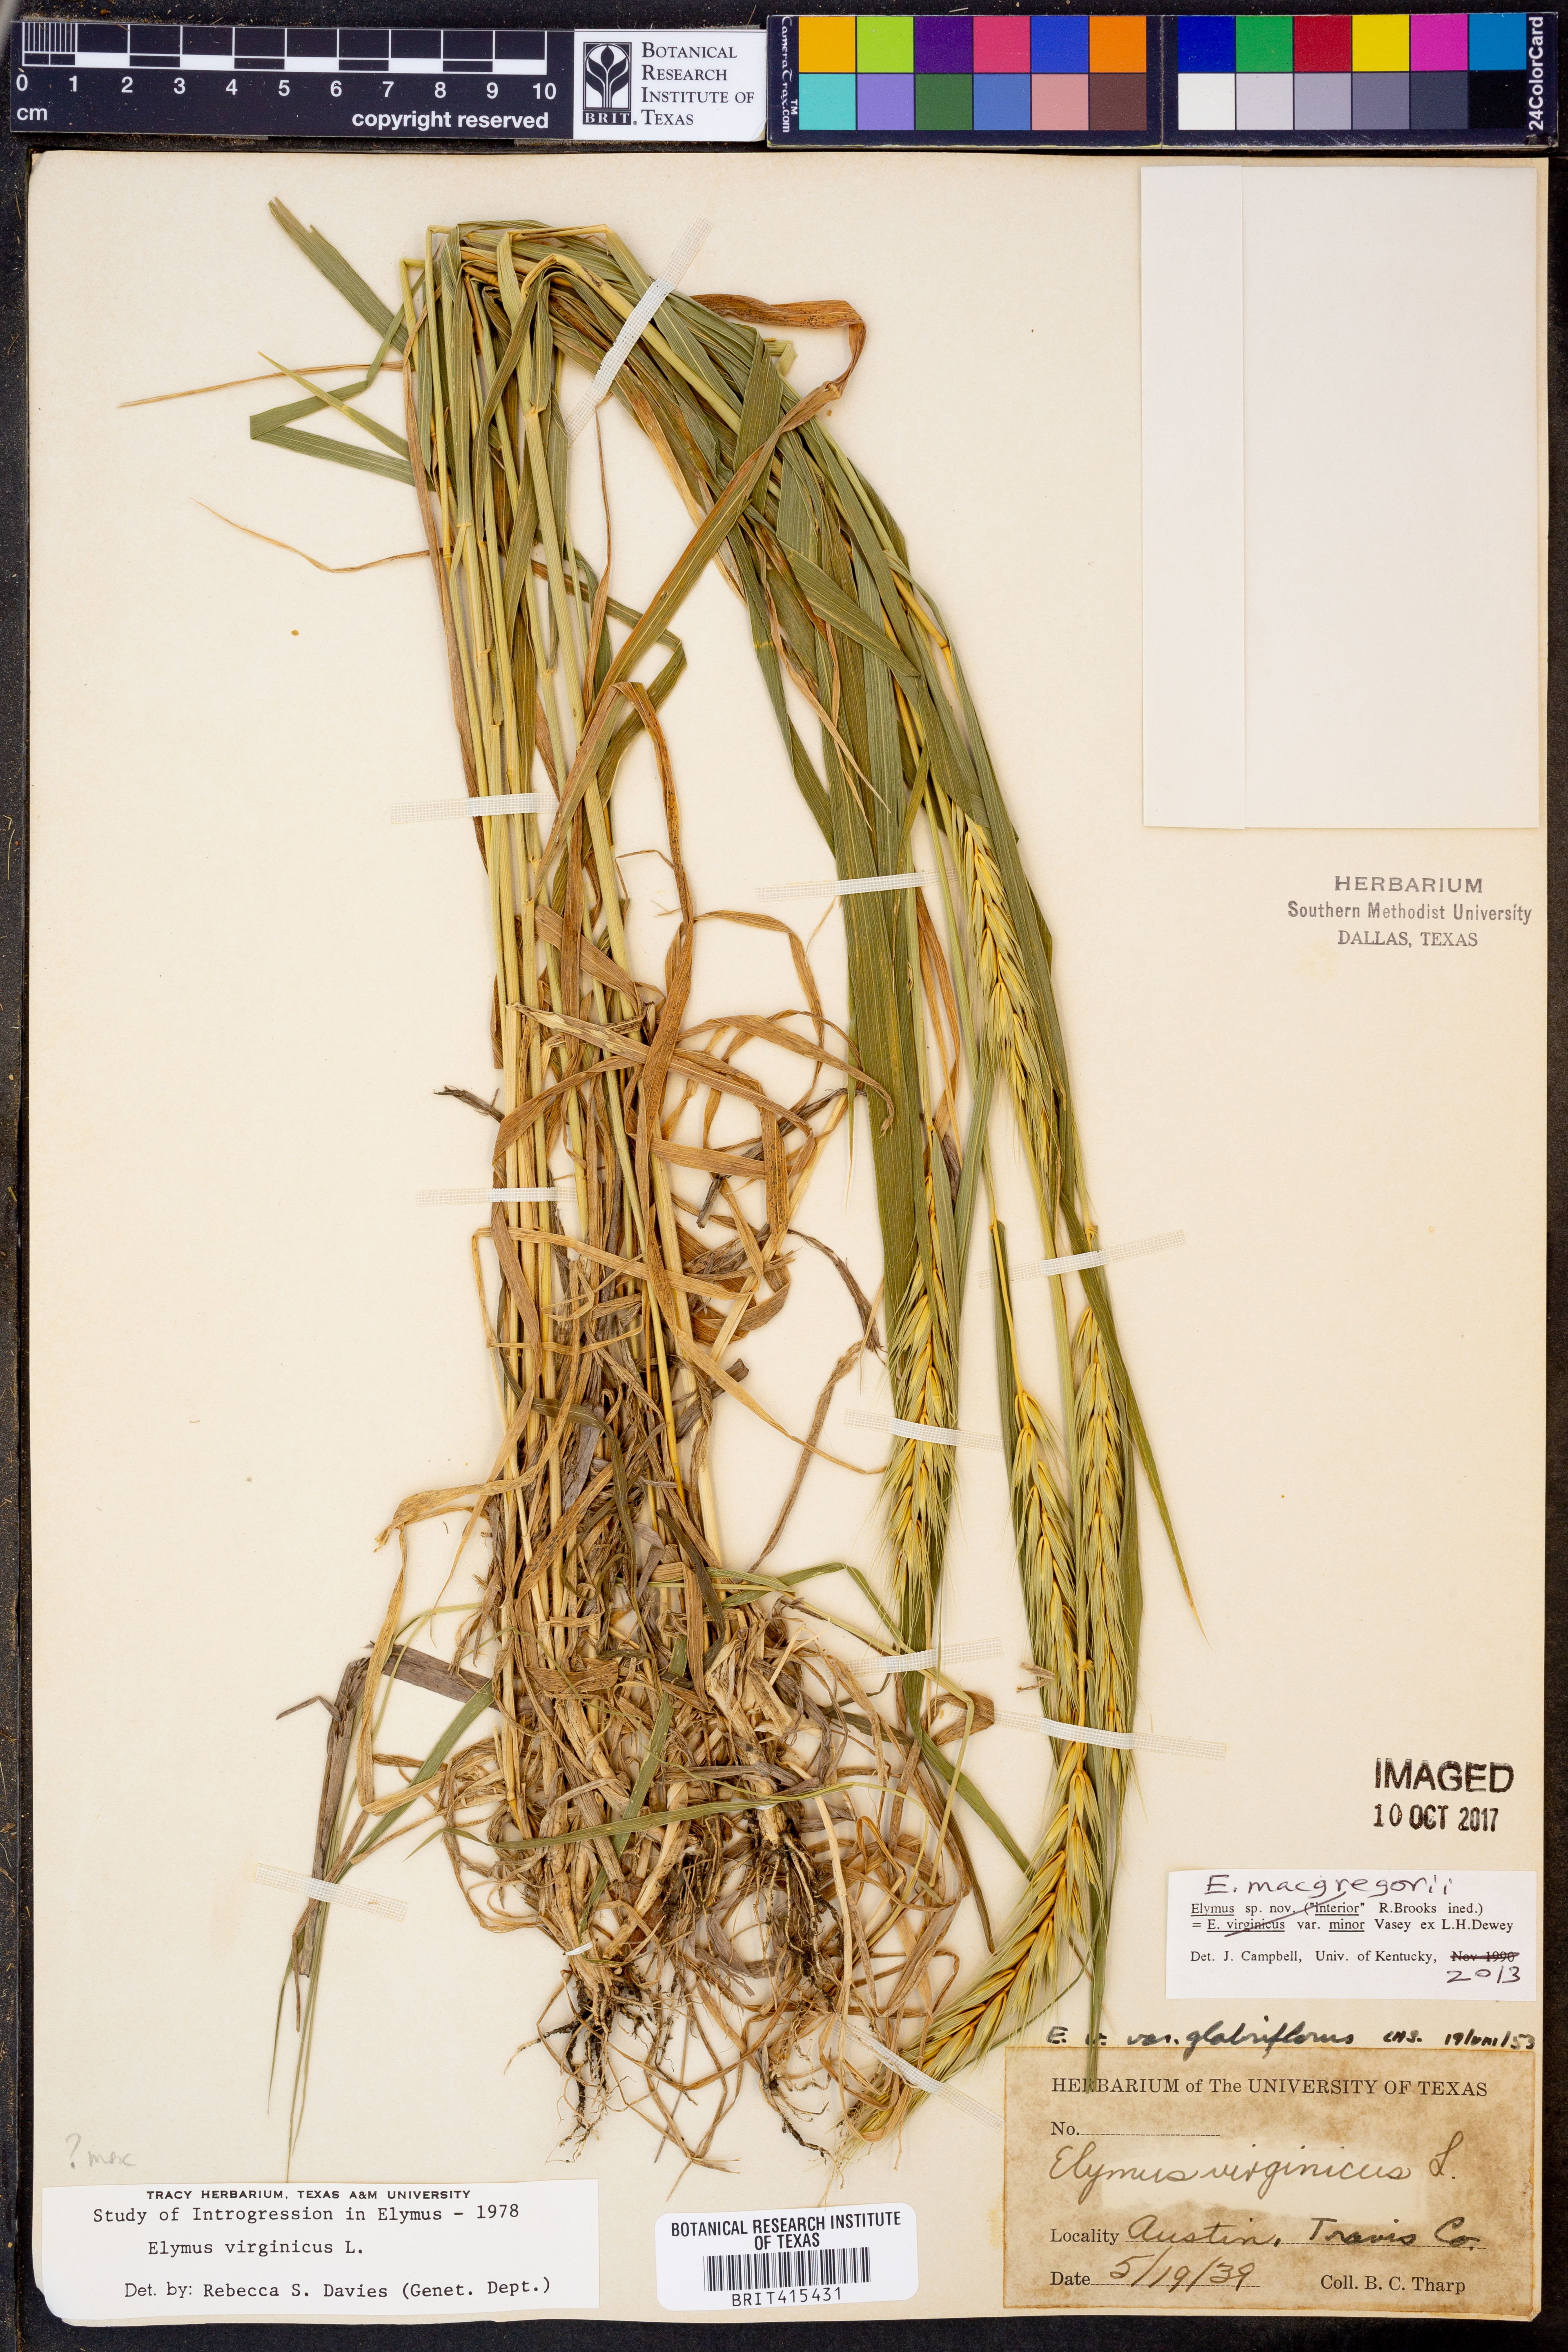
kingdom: Plantae
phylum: Tracheophyta
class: Liliopsida
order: Poales
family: Poaceae
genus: Elymus
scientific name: Elymus macgregorii
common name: Early wild rye
